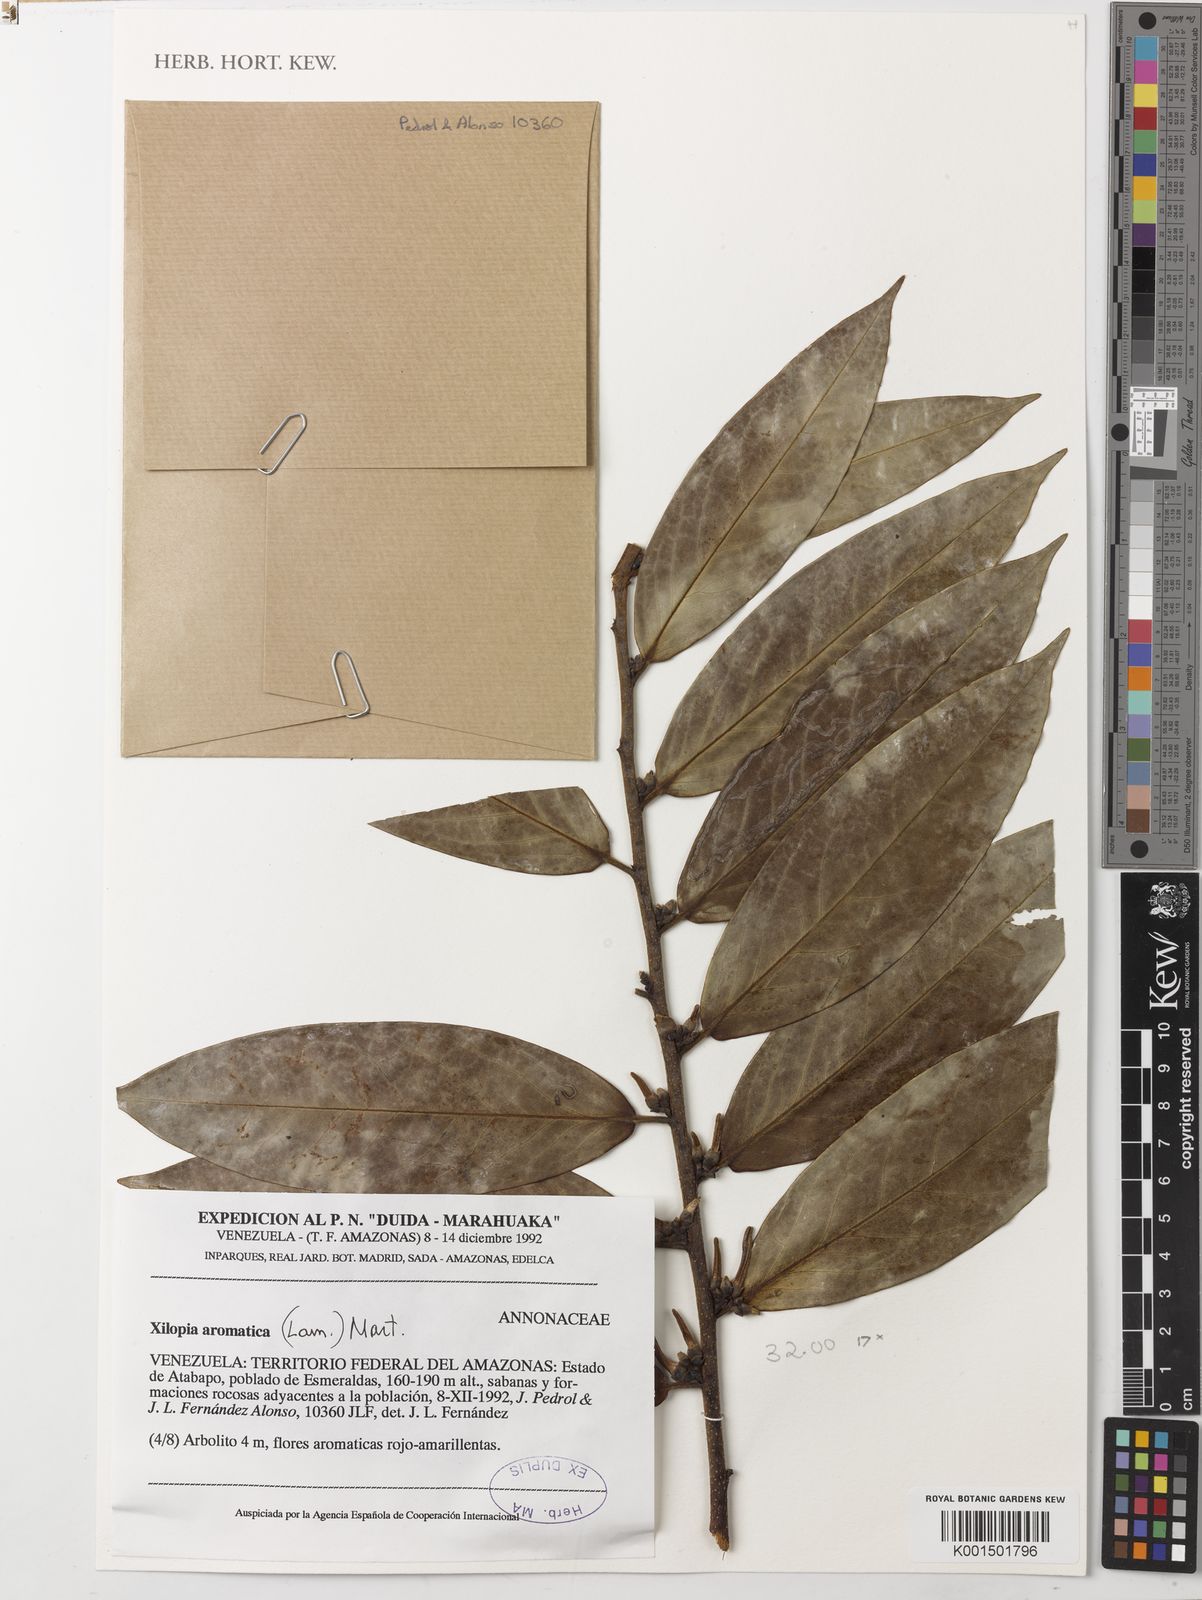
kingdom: Plantae
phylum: Tracheophyta
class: Magnoliopsida
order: Magnoliales
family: Annonaceae
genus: Xylopia
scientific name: Xylopia aromatica
